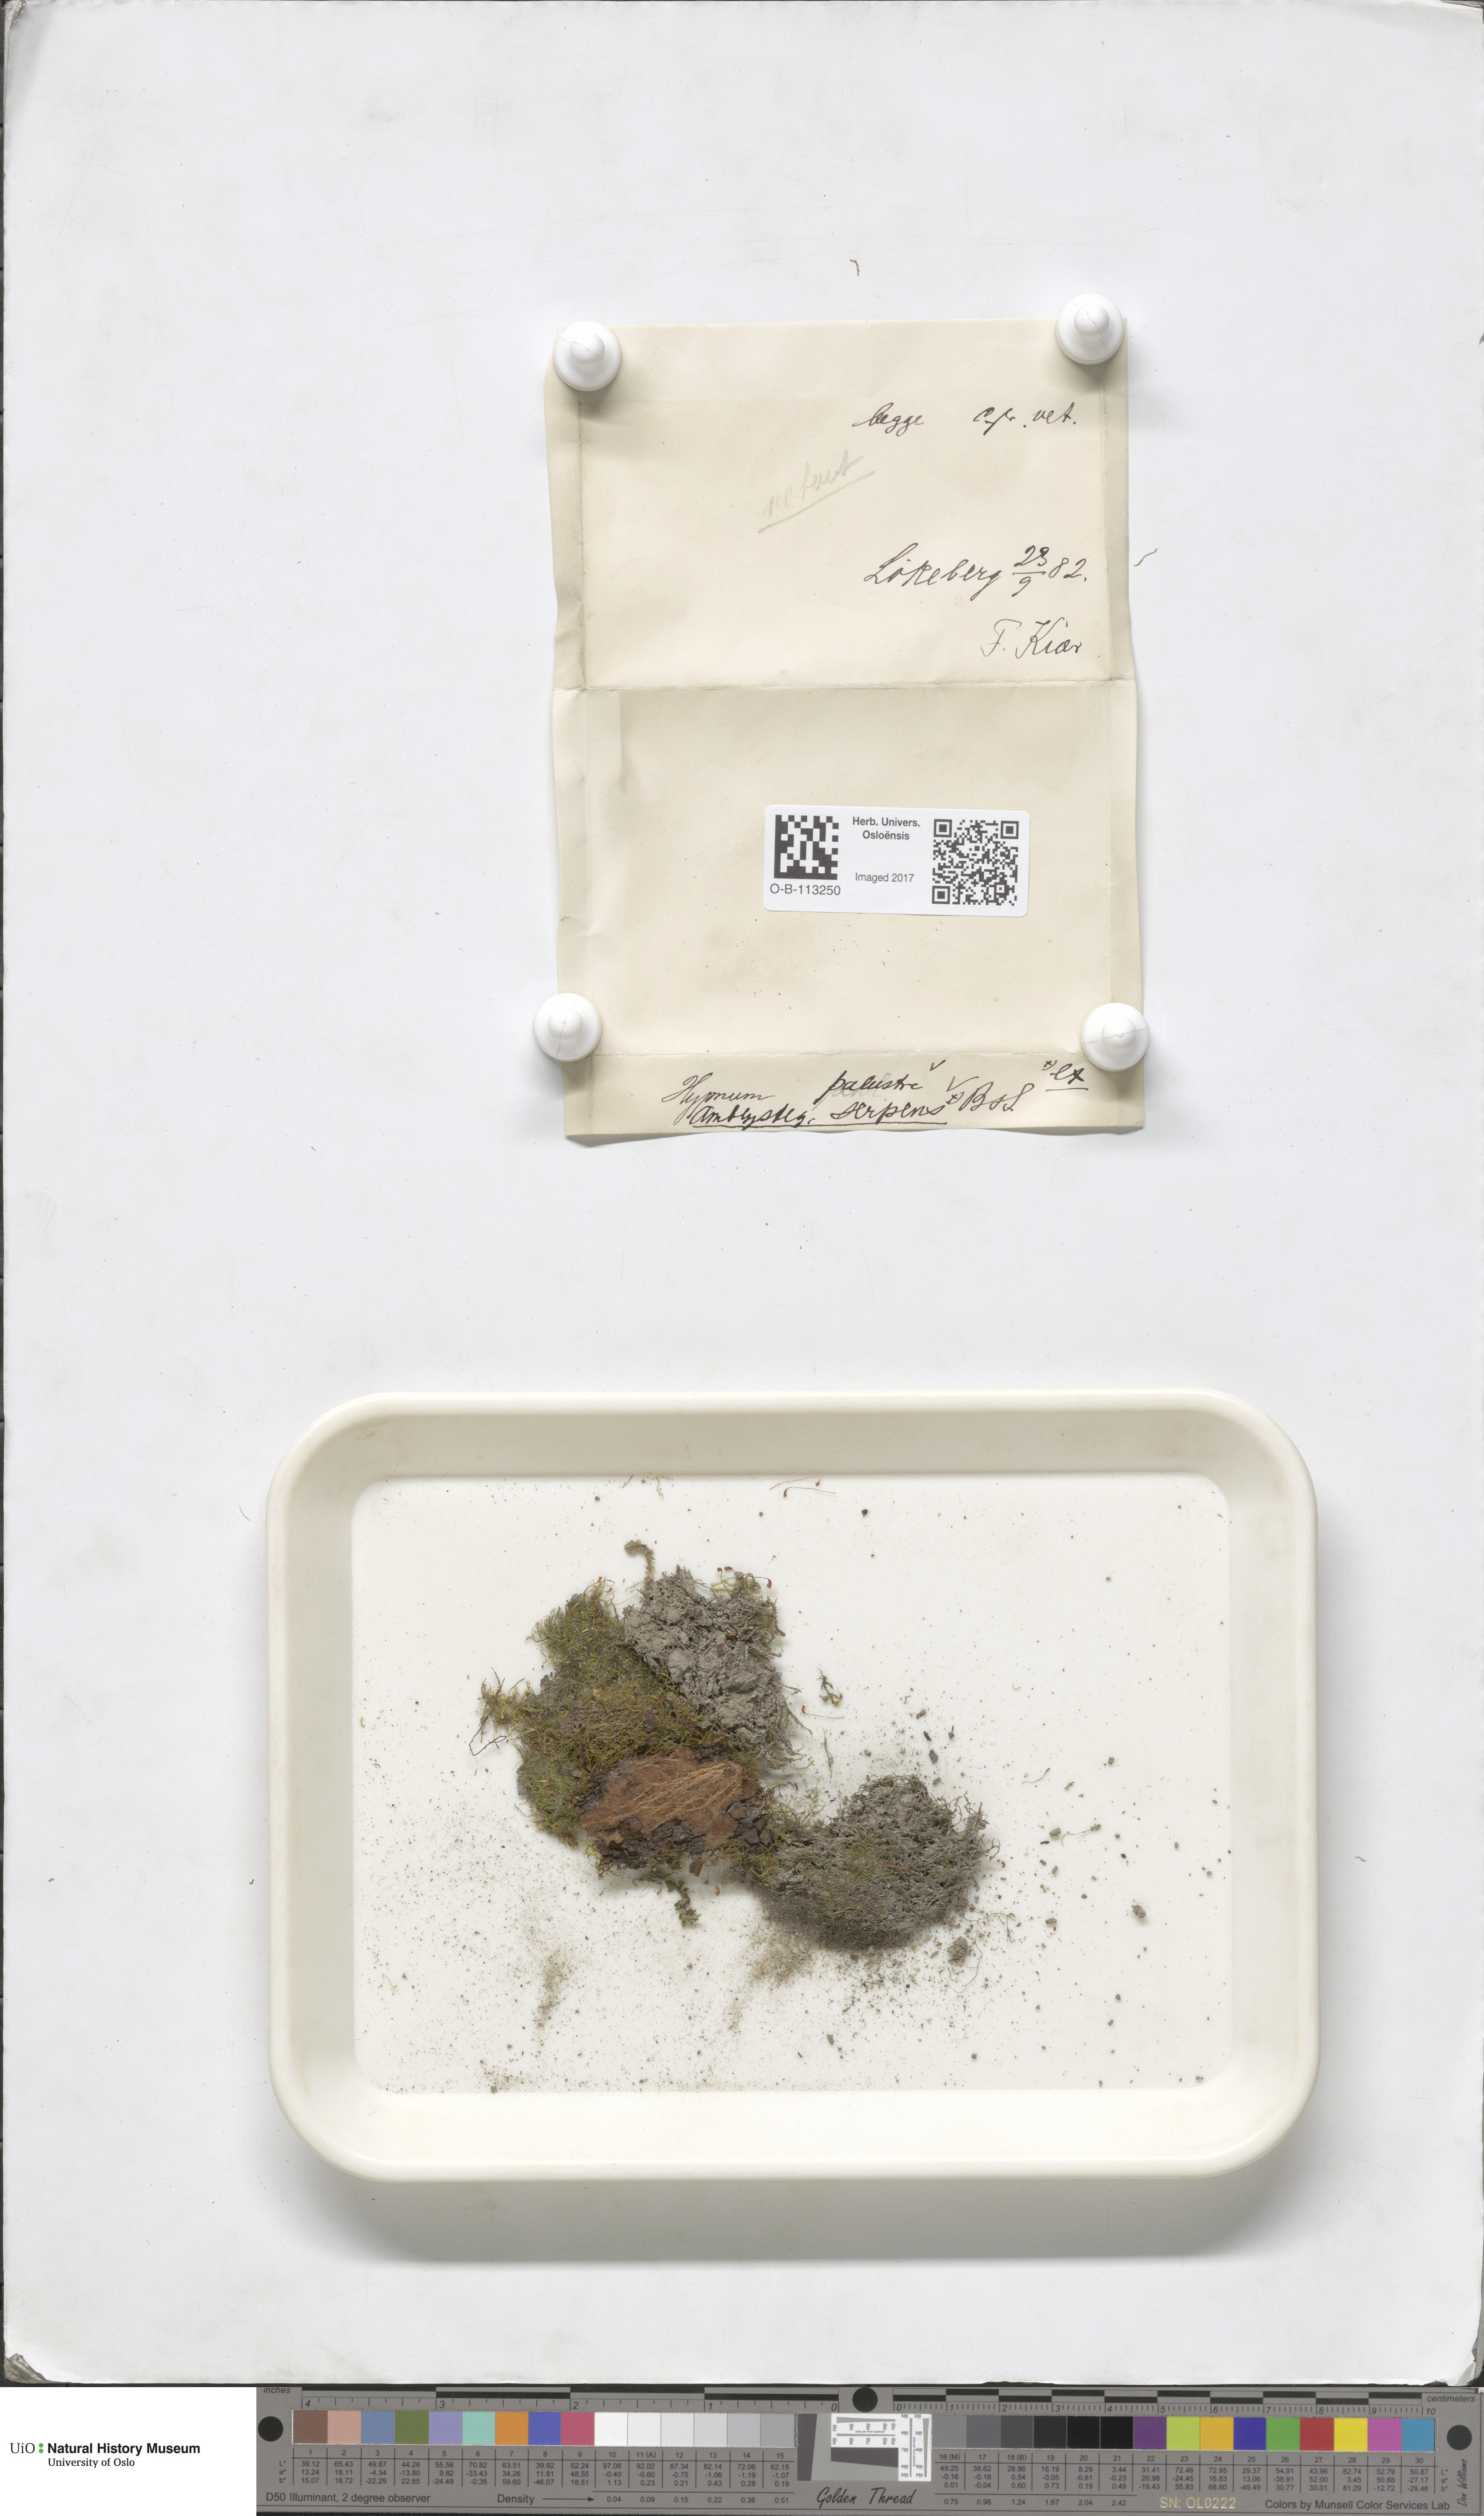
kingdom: Plantae
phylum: Bryophyta
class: Bryopsida
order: Hypnales
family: Amblystegiaceae
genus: Amblystegium
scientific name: Amblystegium serpens
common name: Jurkatzka's feather moss
